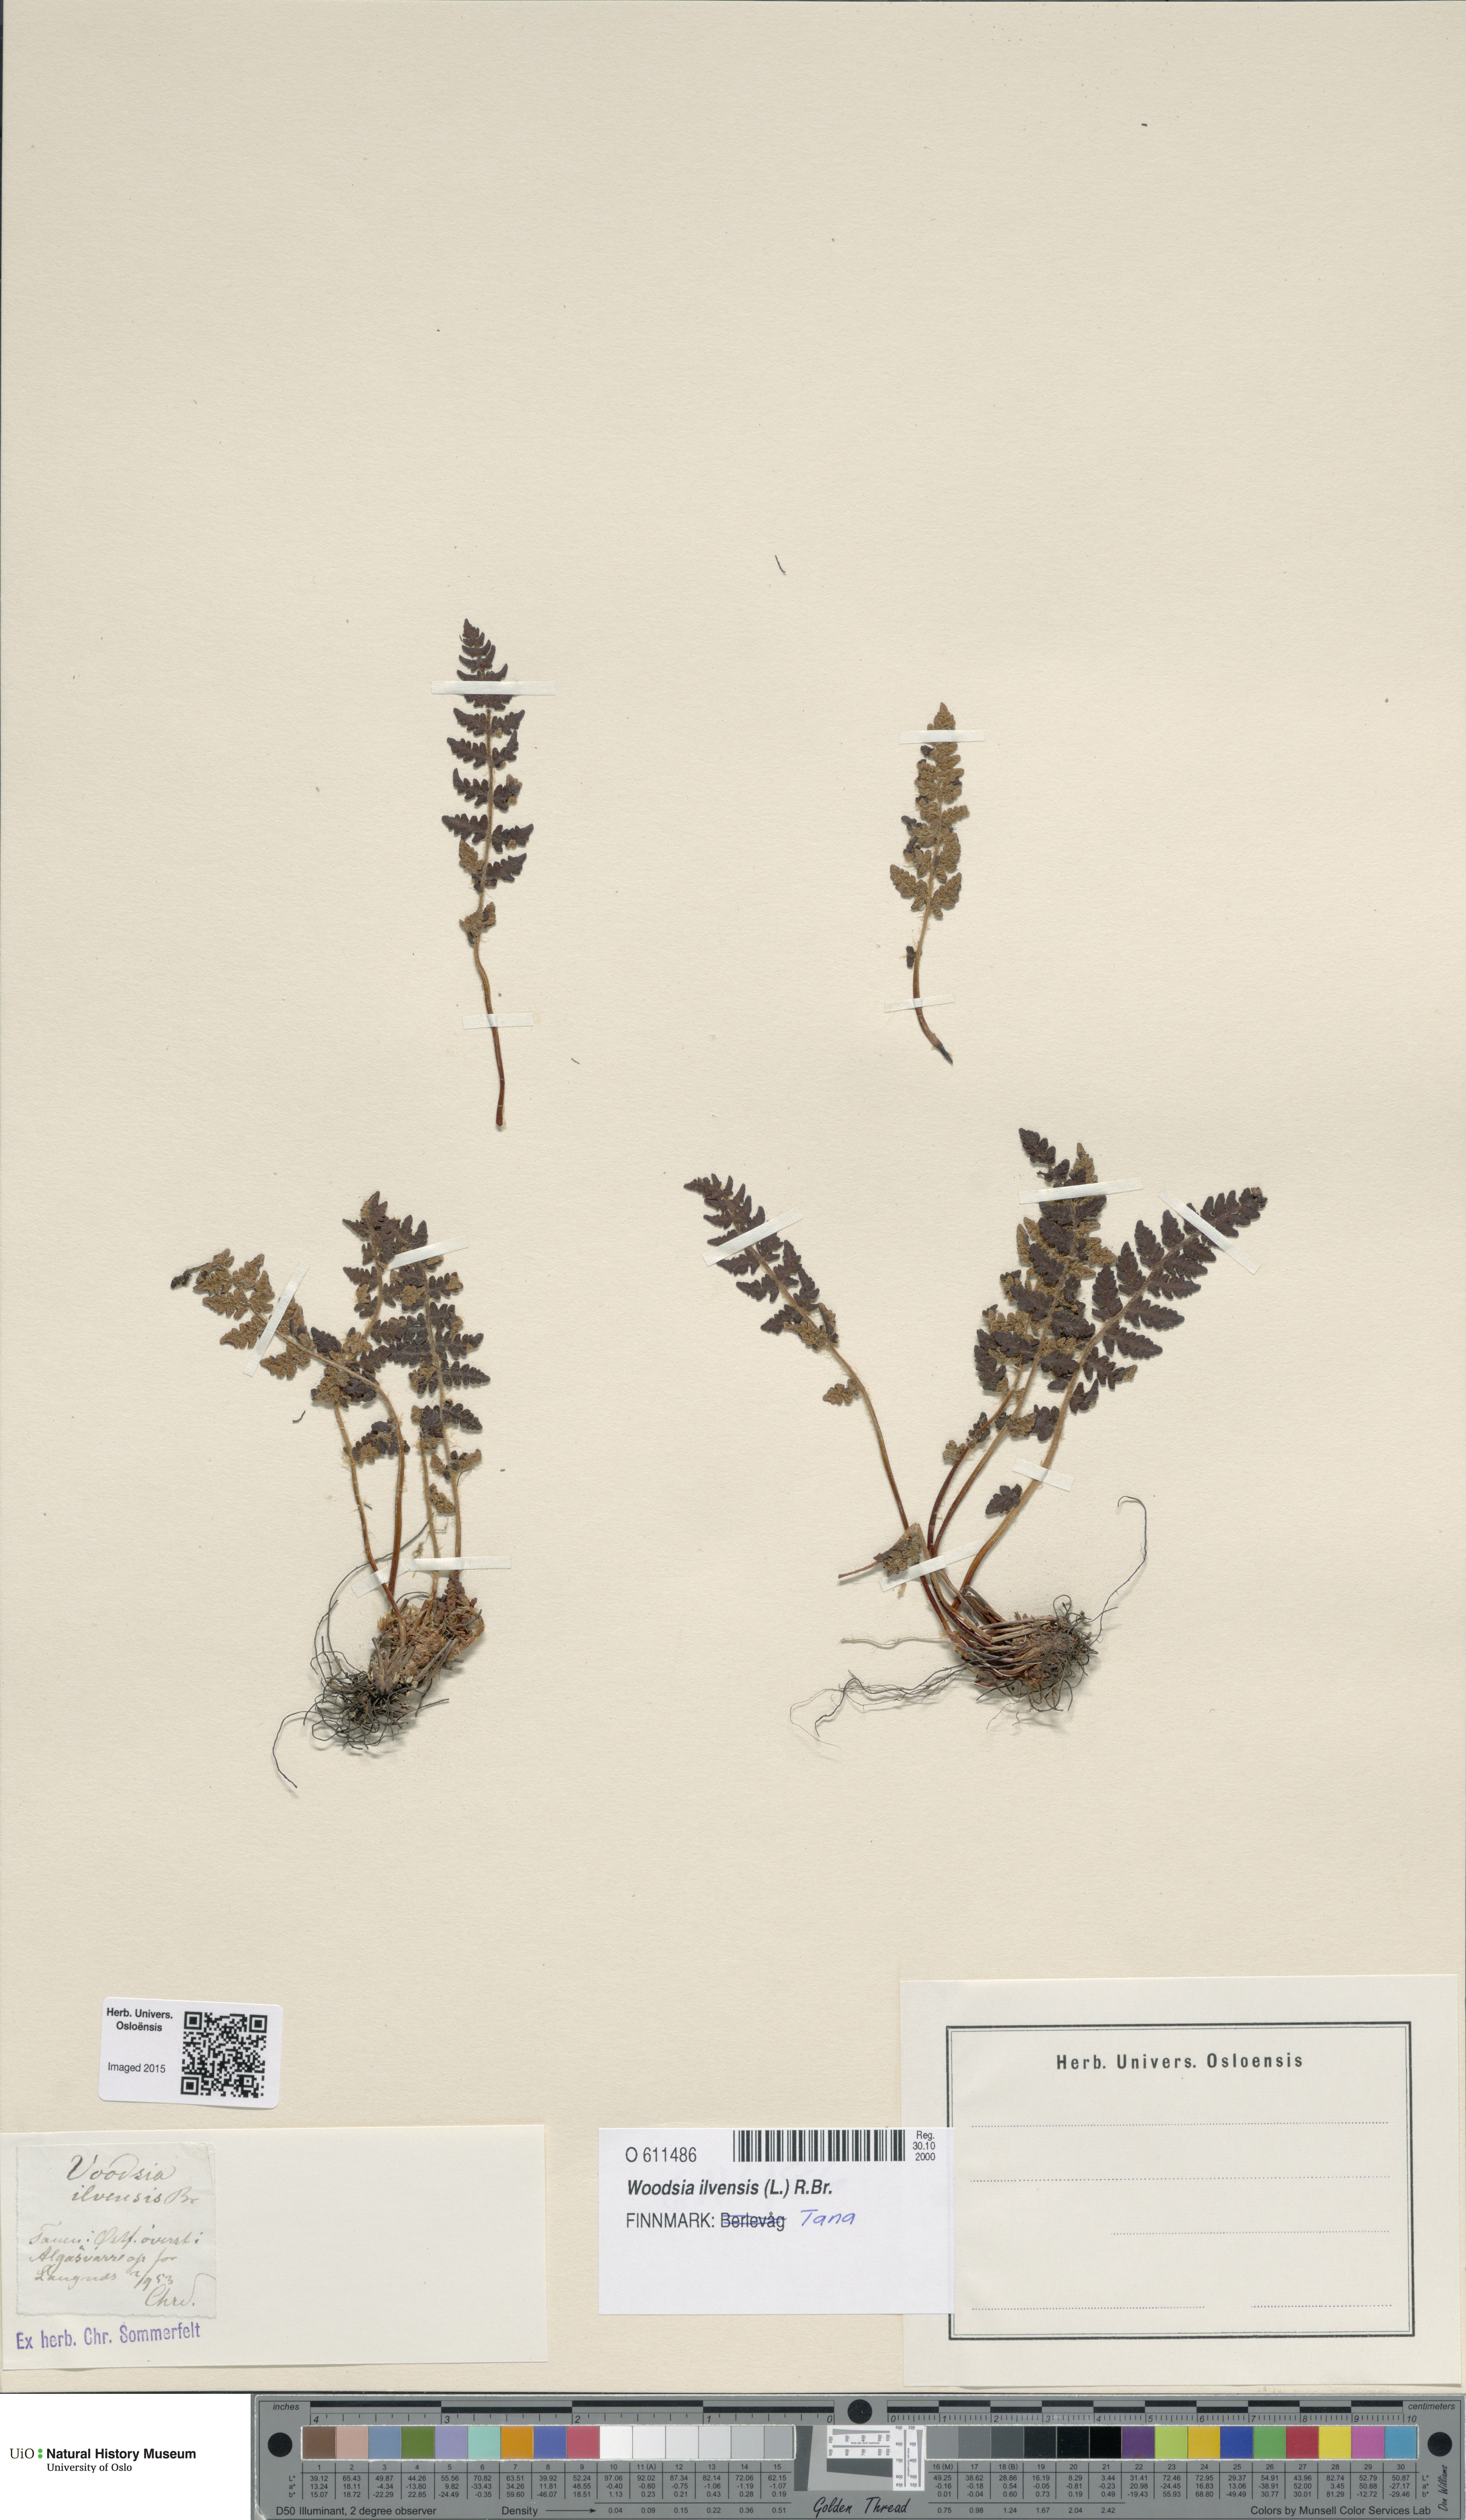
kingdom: Plantae
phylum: Tracheophyta
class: Polypodiopsida
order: Polypodiales
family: Woodsiaceae
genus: Woodsia
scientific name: Woodsia ilvensis
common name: Fragrant woodsia
